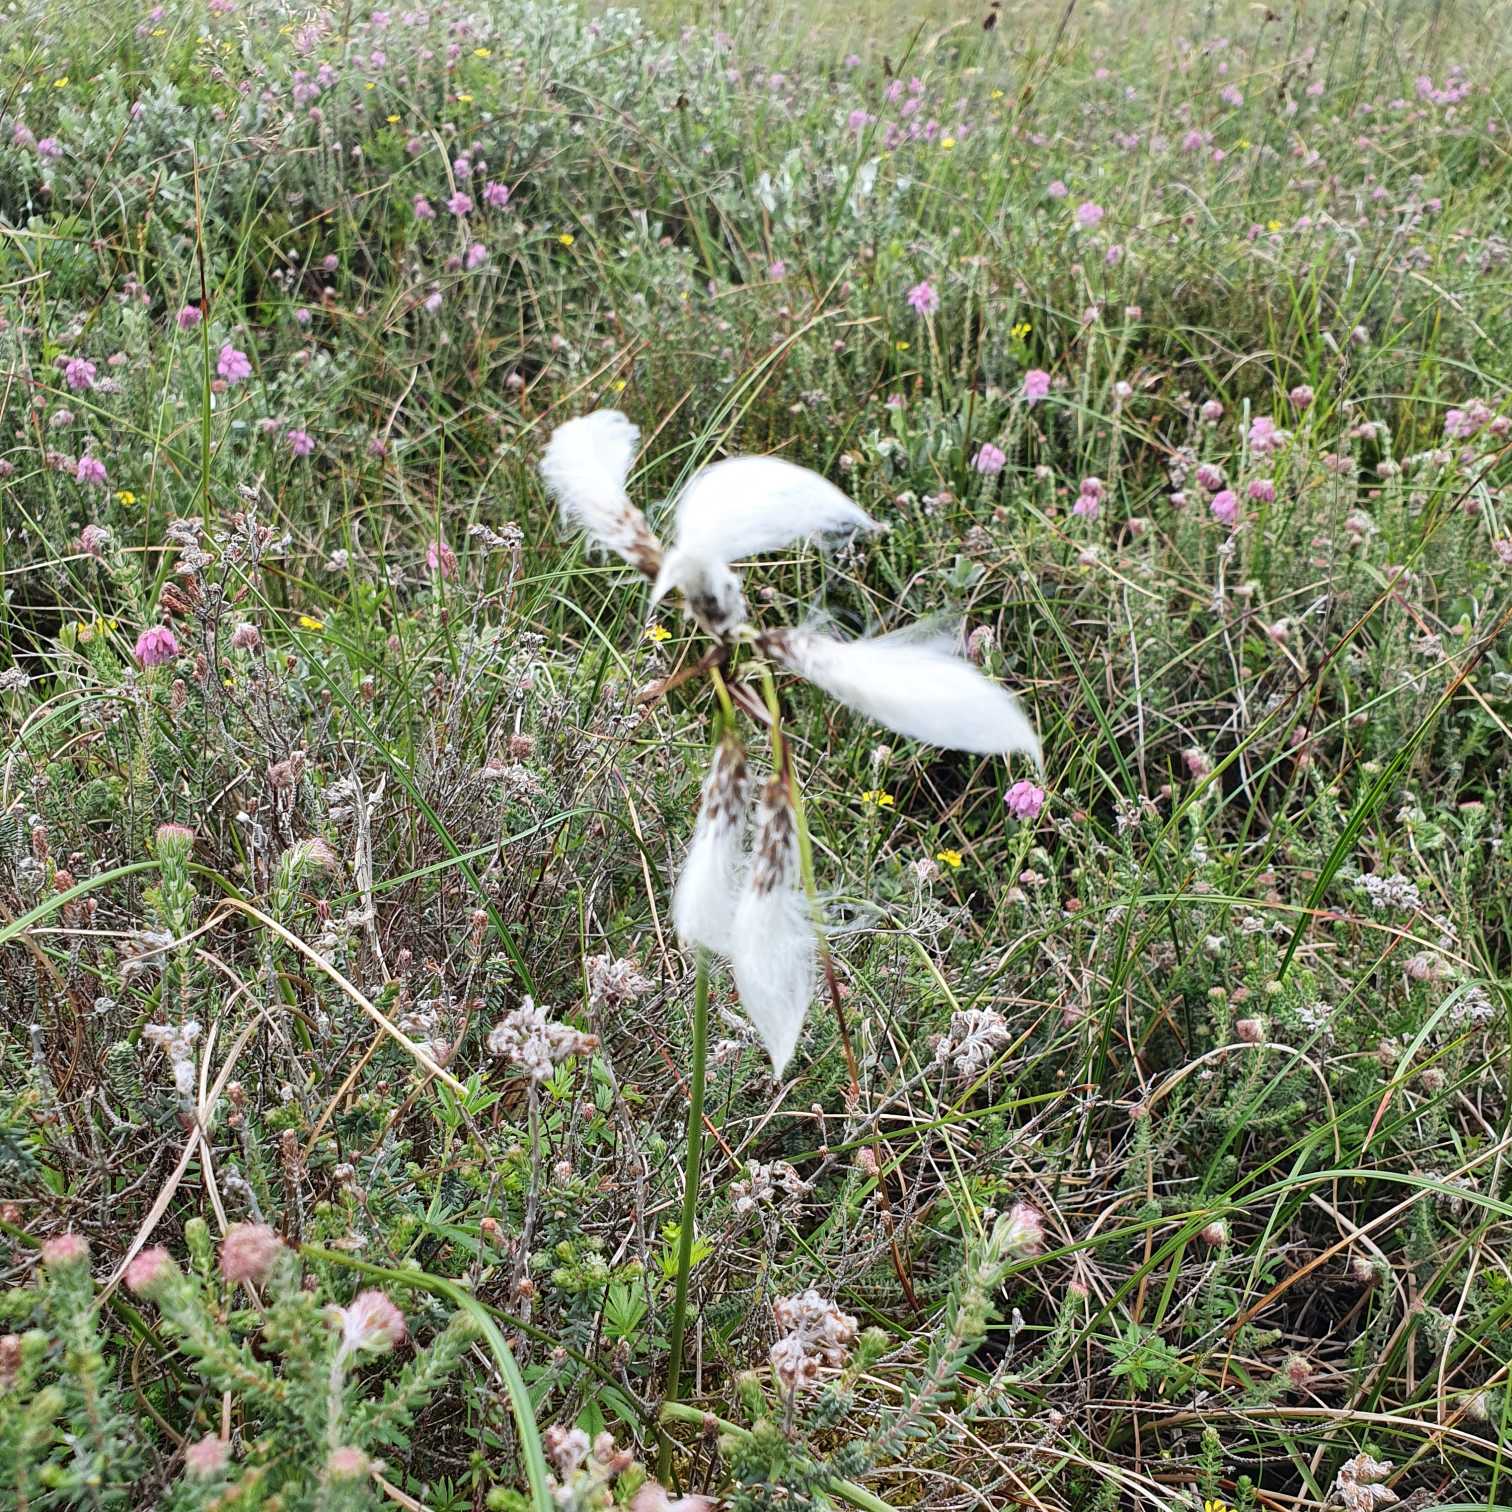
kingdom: Plantae
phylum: Tracheophyta
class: Liliopsida
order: Poales
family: Cyperaceae
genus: Eriophorum
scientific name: Eriophorum angustifolium
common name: Smalbladet kæruld
